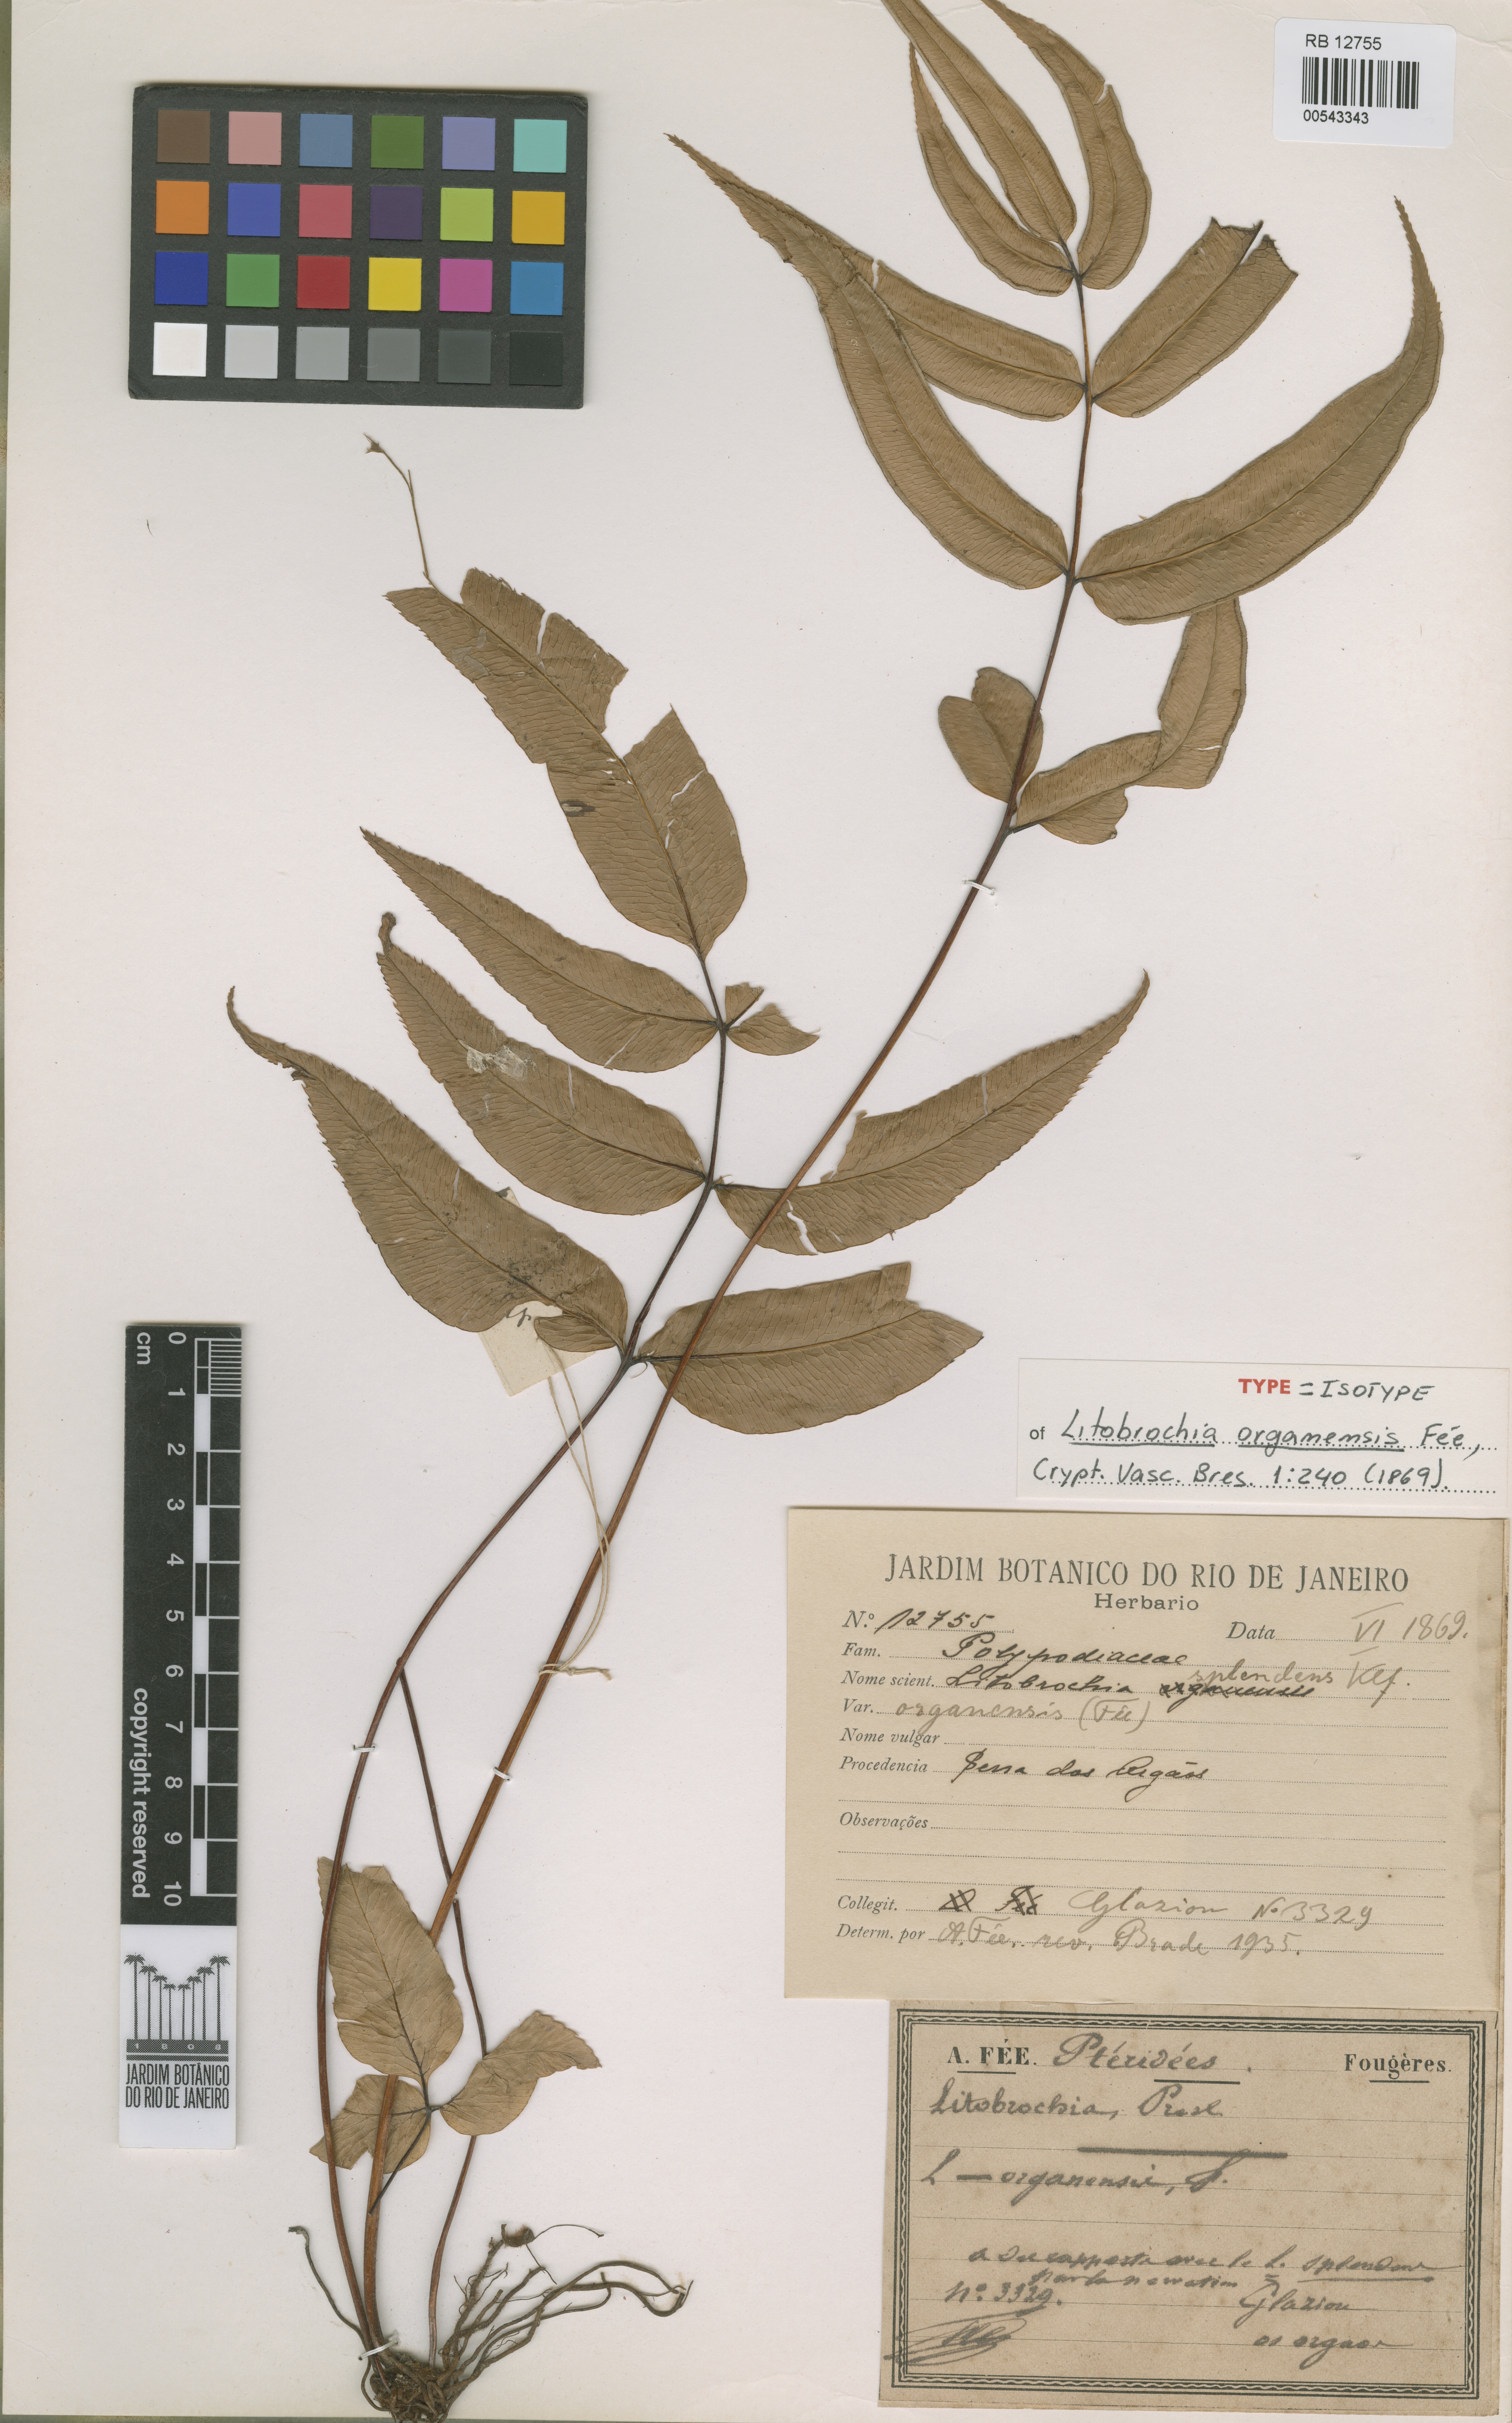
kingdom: Plantae
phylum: Tracheophyta
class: Polypodiopsida
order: Polypodiales
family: Pteridaceae
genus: Pteris
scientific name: Pteris splendens
